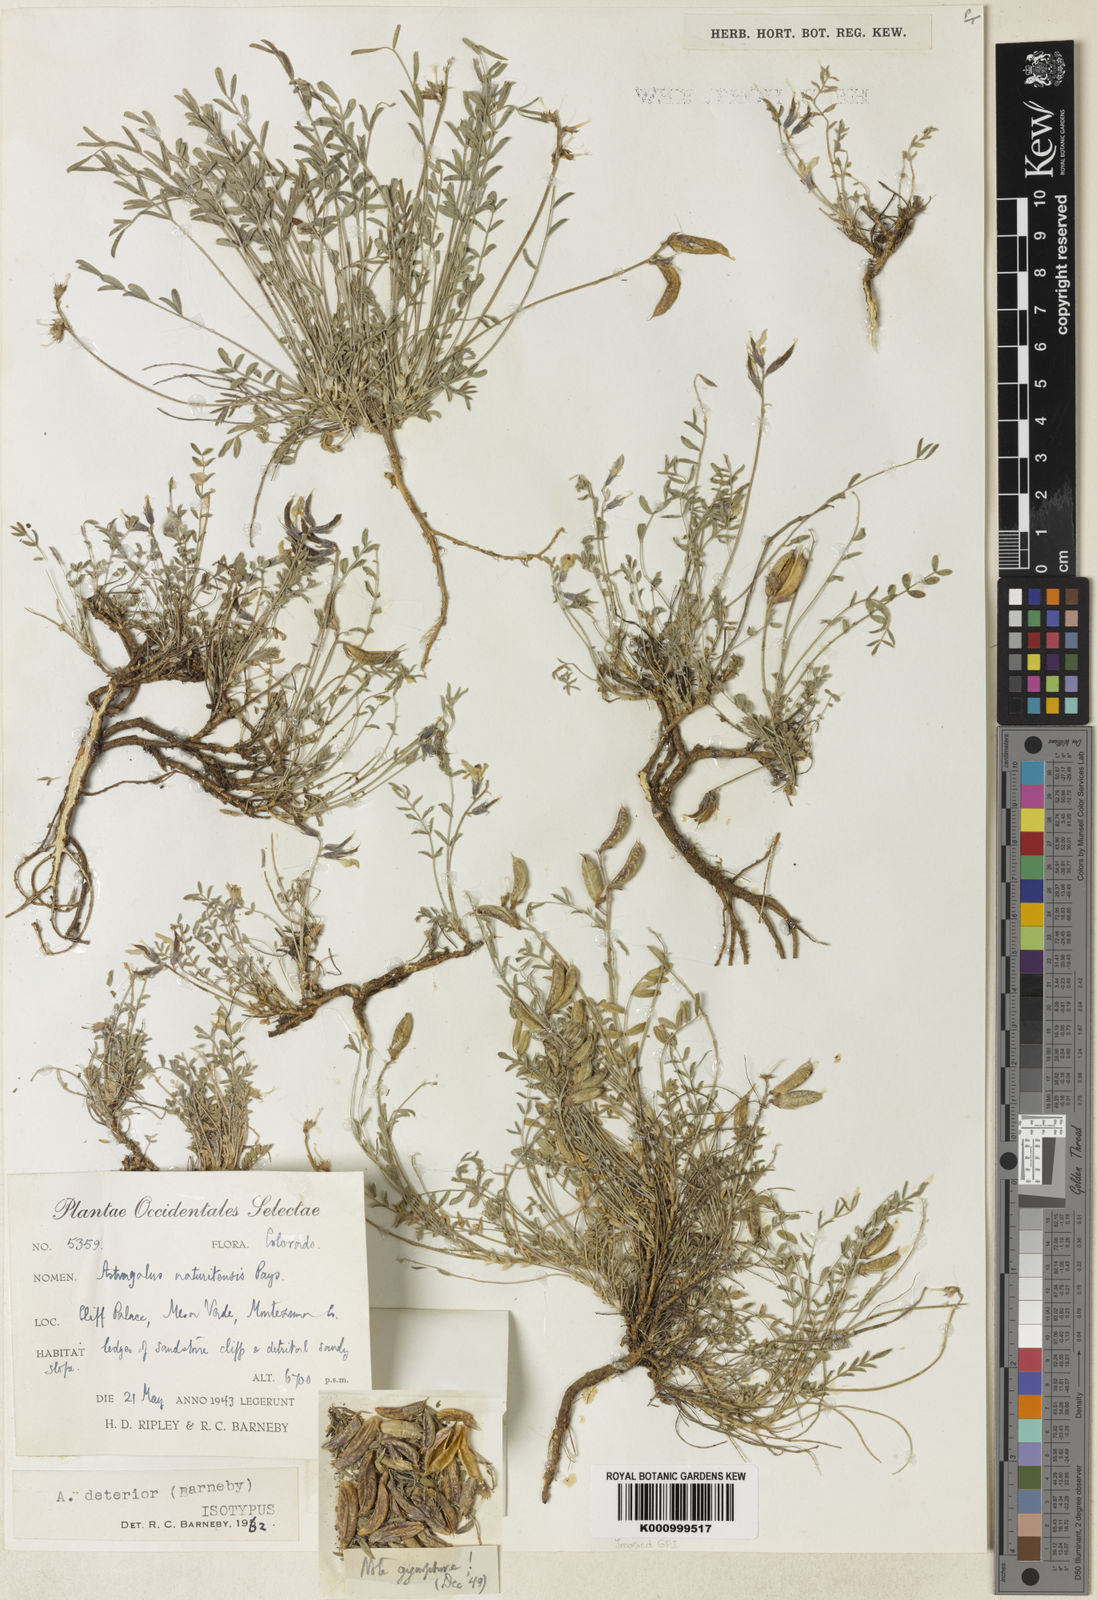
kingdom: Plantae
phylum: Tracheophyta
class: Magnoliopsida
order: Fabales
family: Fabaceae
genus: Astragalus
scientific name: Astragalus deterior
